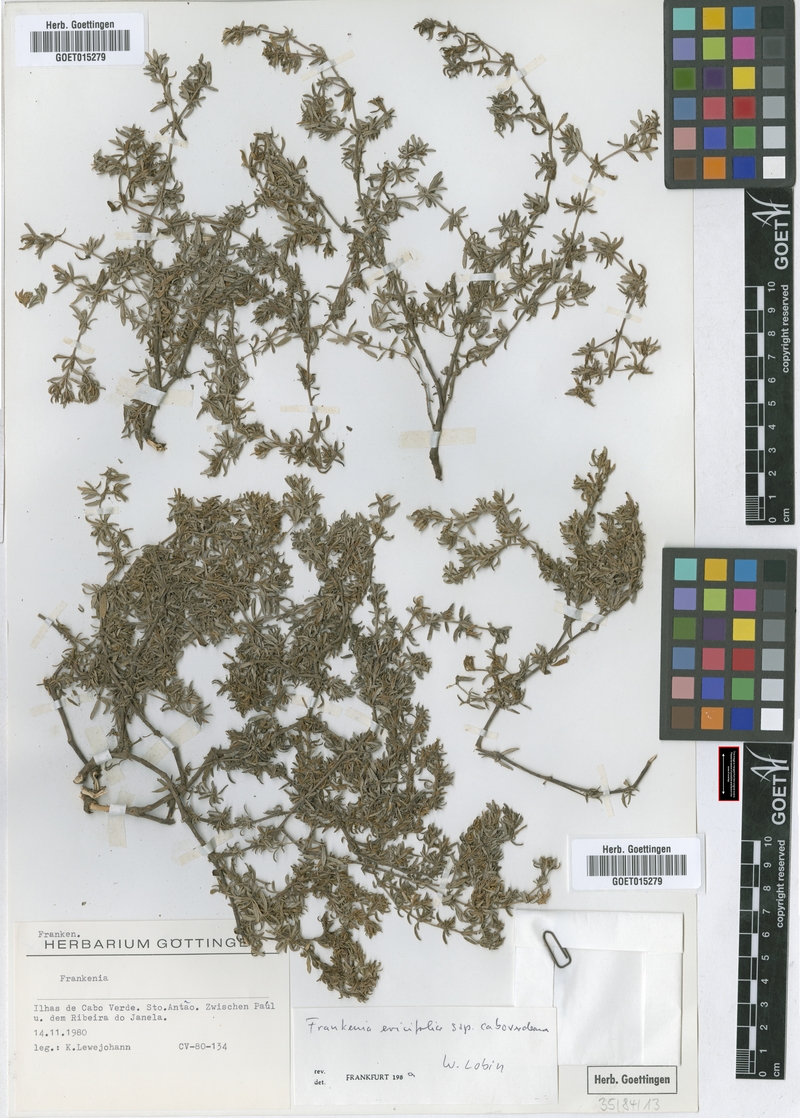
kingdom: Plantae
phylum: Tracheophyta
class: Magnoliopsida
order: Caryophyllales
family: Frankeniaceae
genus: Frankenia
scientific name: Frankenia caboverdeana
